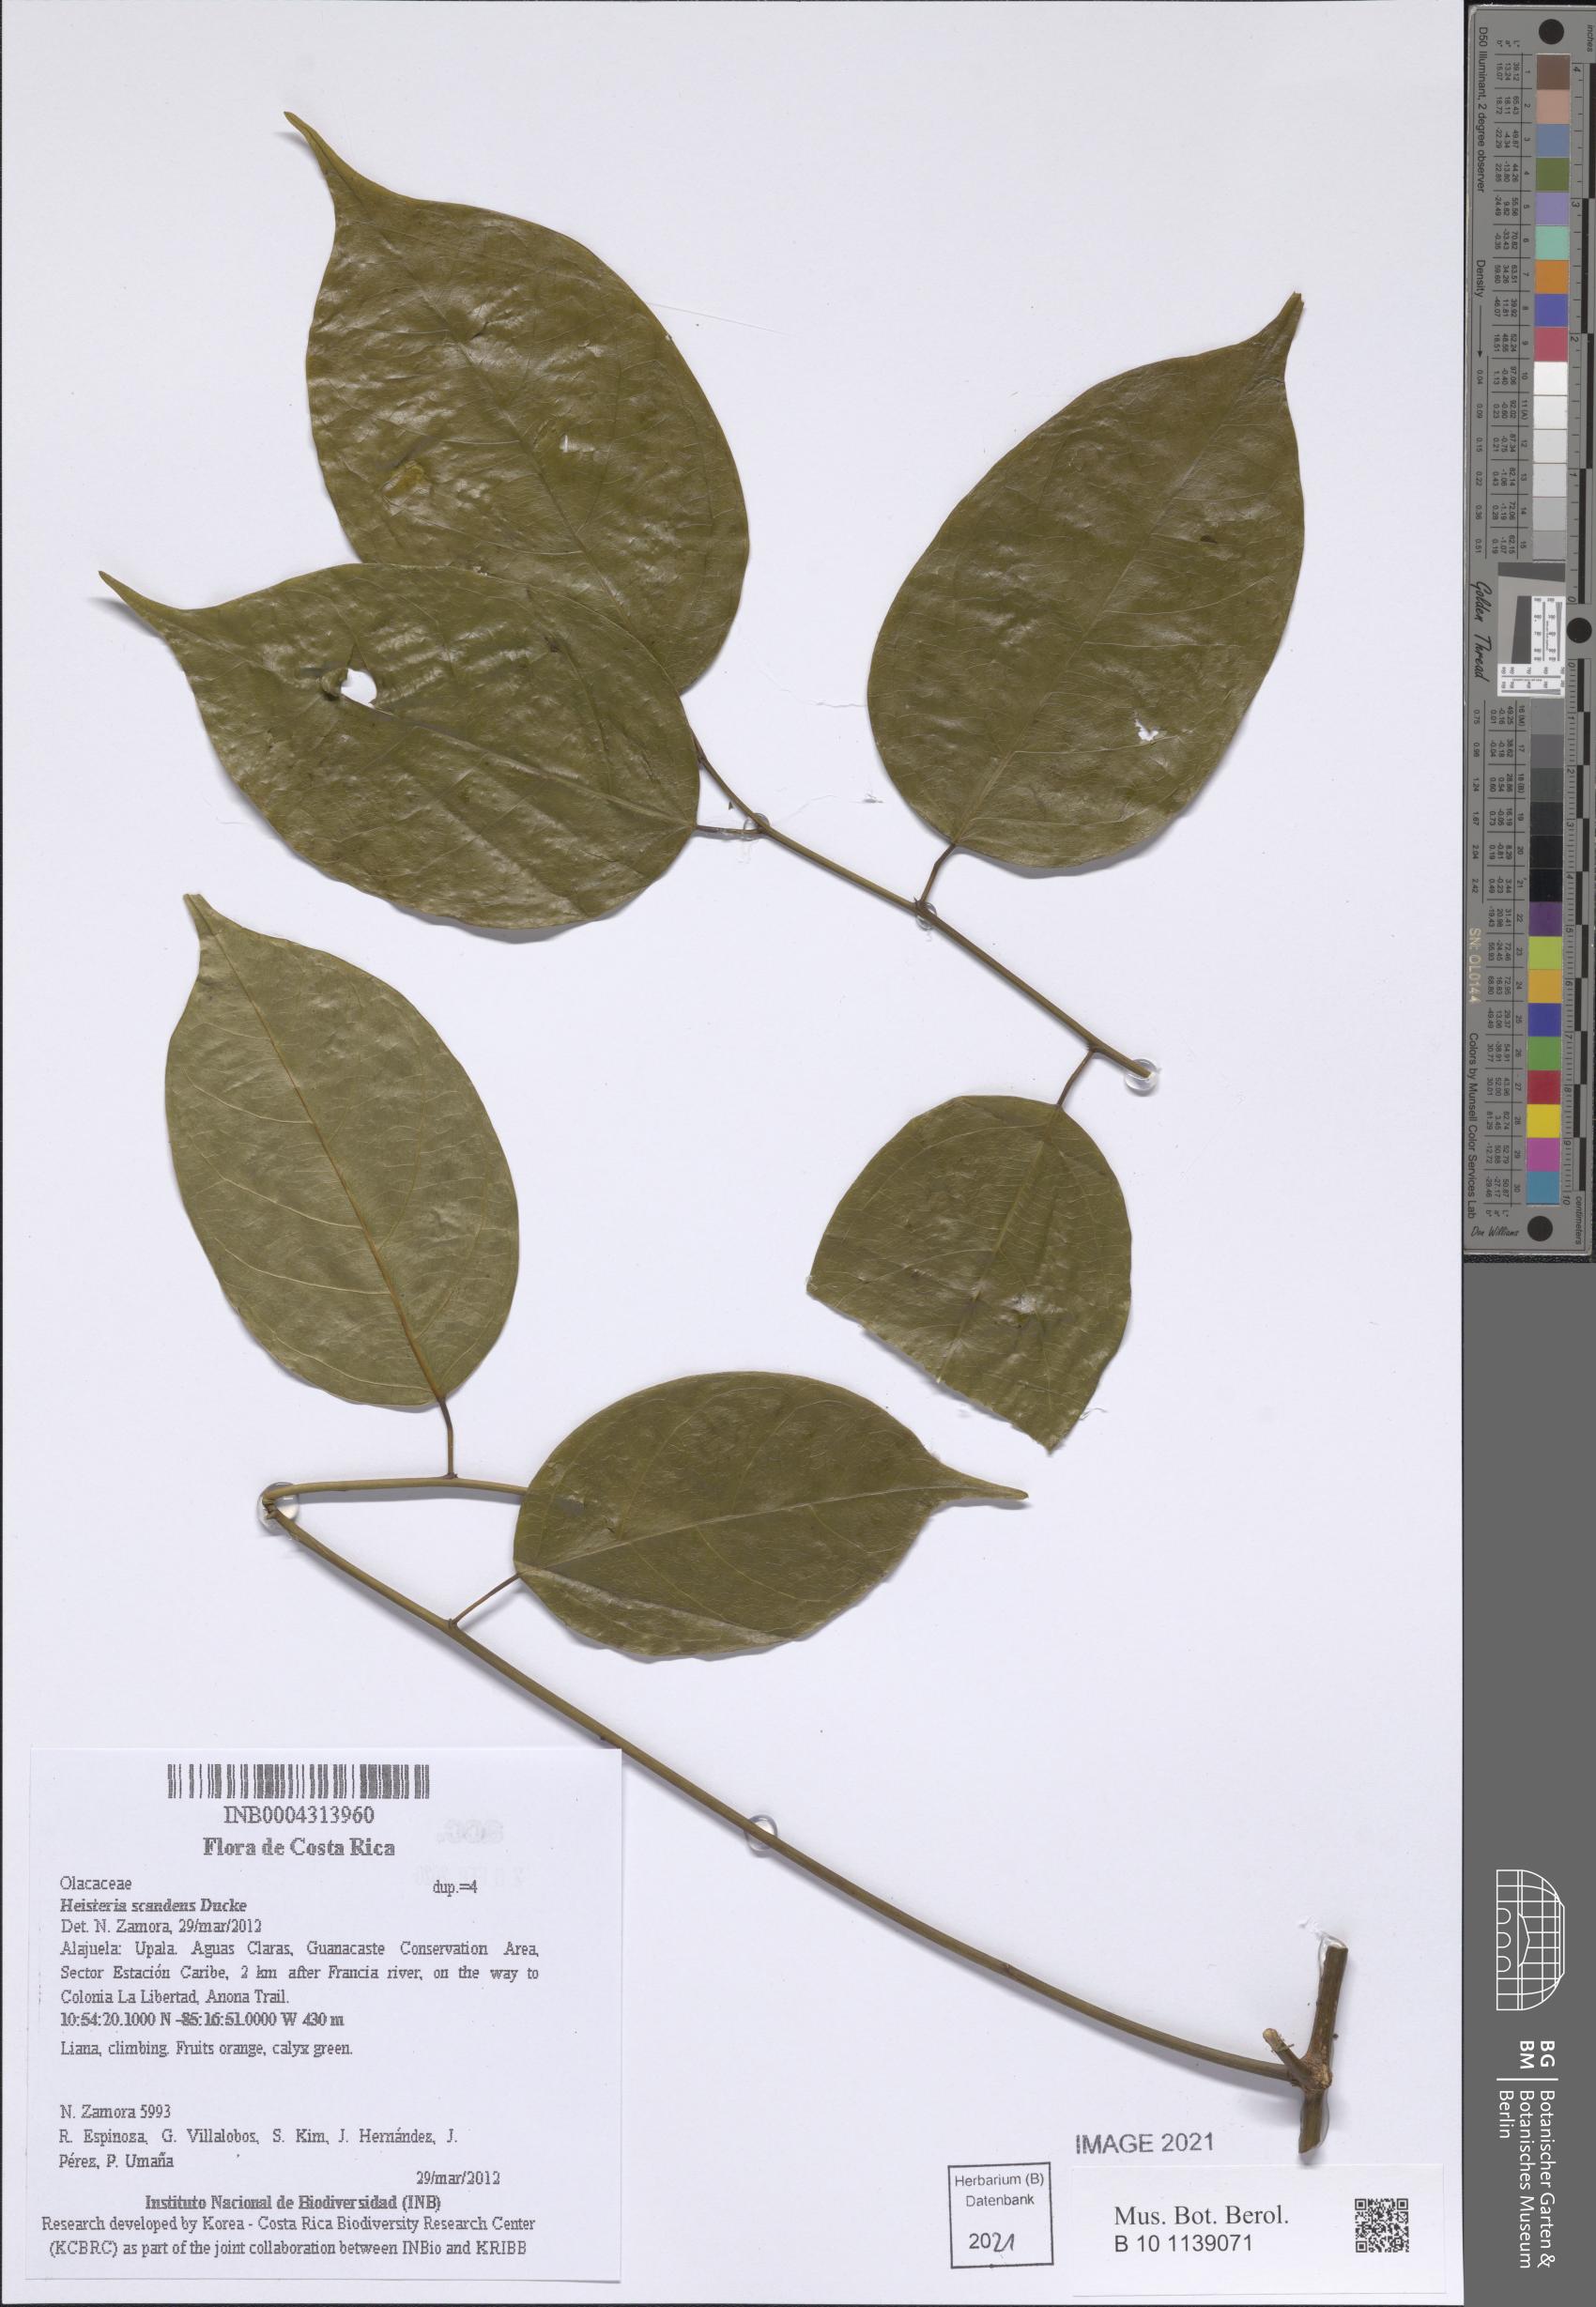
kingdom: Plantae
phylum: Tracheophyta
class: Magnoliopsida
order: Santalales
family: Erythropalaceae
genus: Heisteria
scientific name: Heisteria scandens
